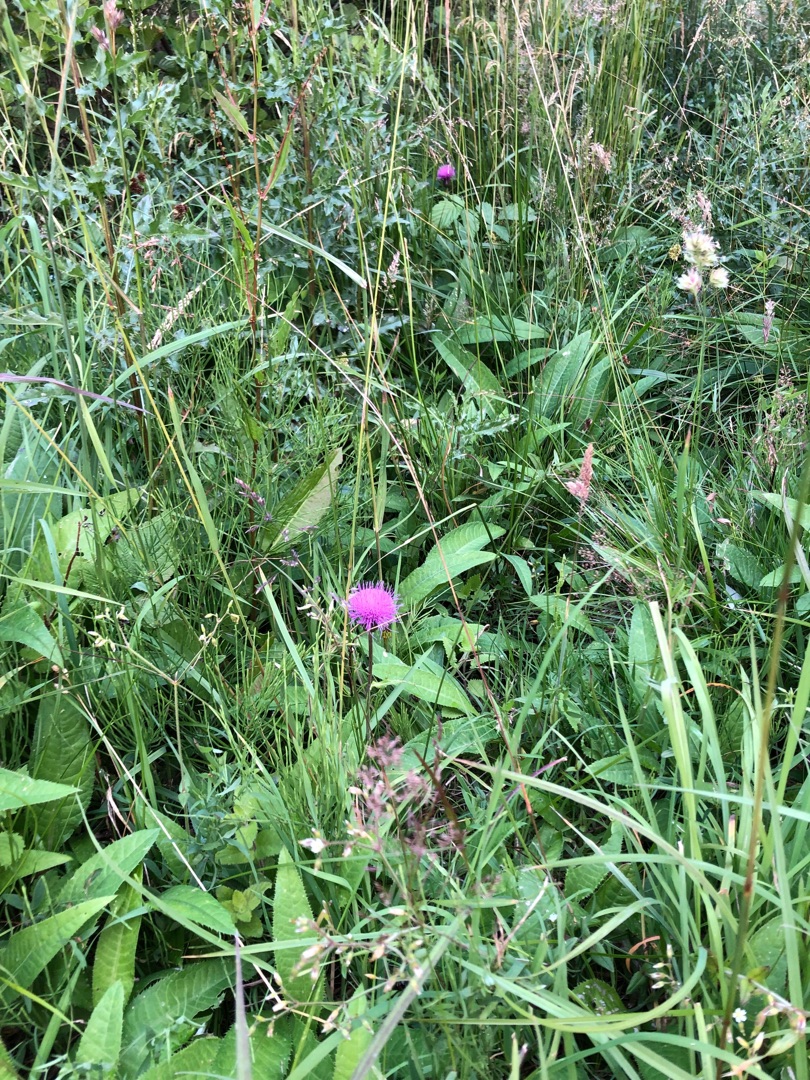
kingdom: Plantae
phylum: Tracheophyta
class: Magnoliopsida
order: Asterales
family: Asteraceae
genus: Cirsium
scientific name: Cirsium heterophyllum
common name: Forskelligbladet tidsel
